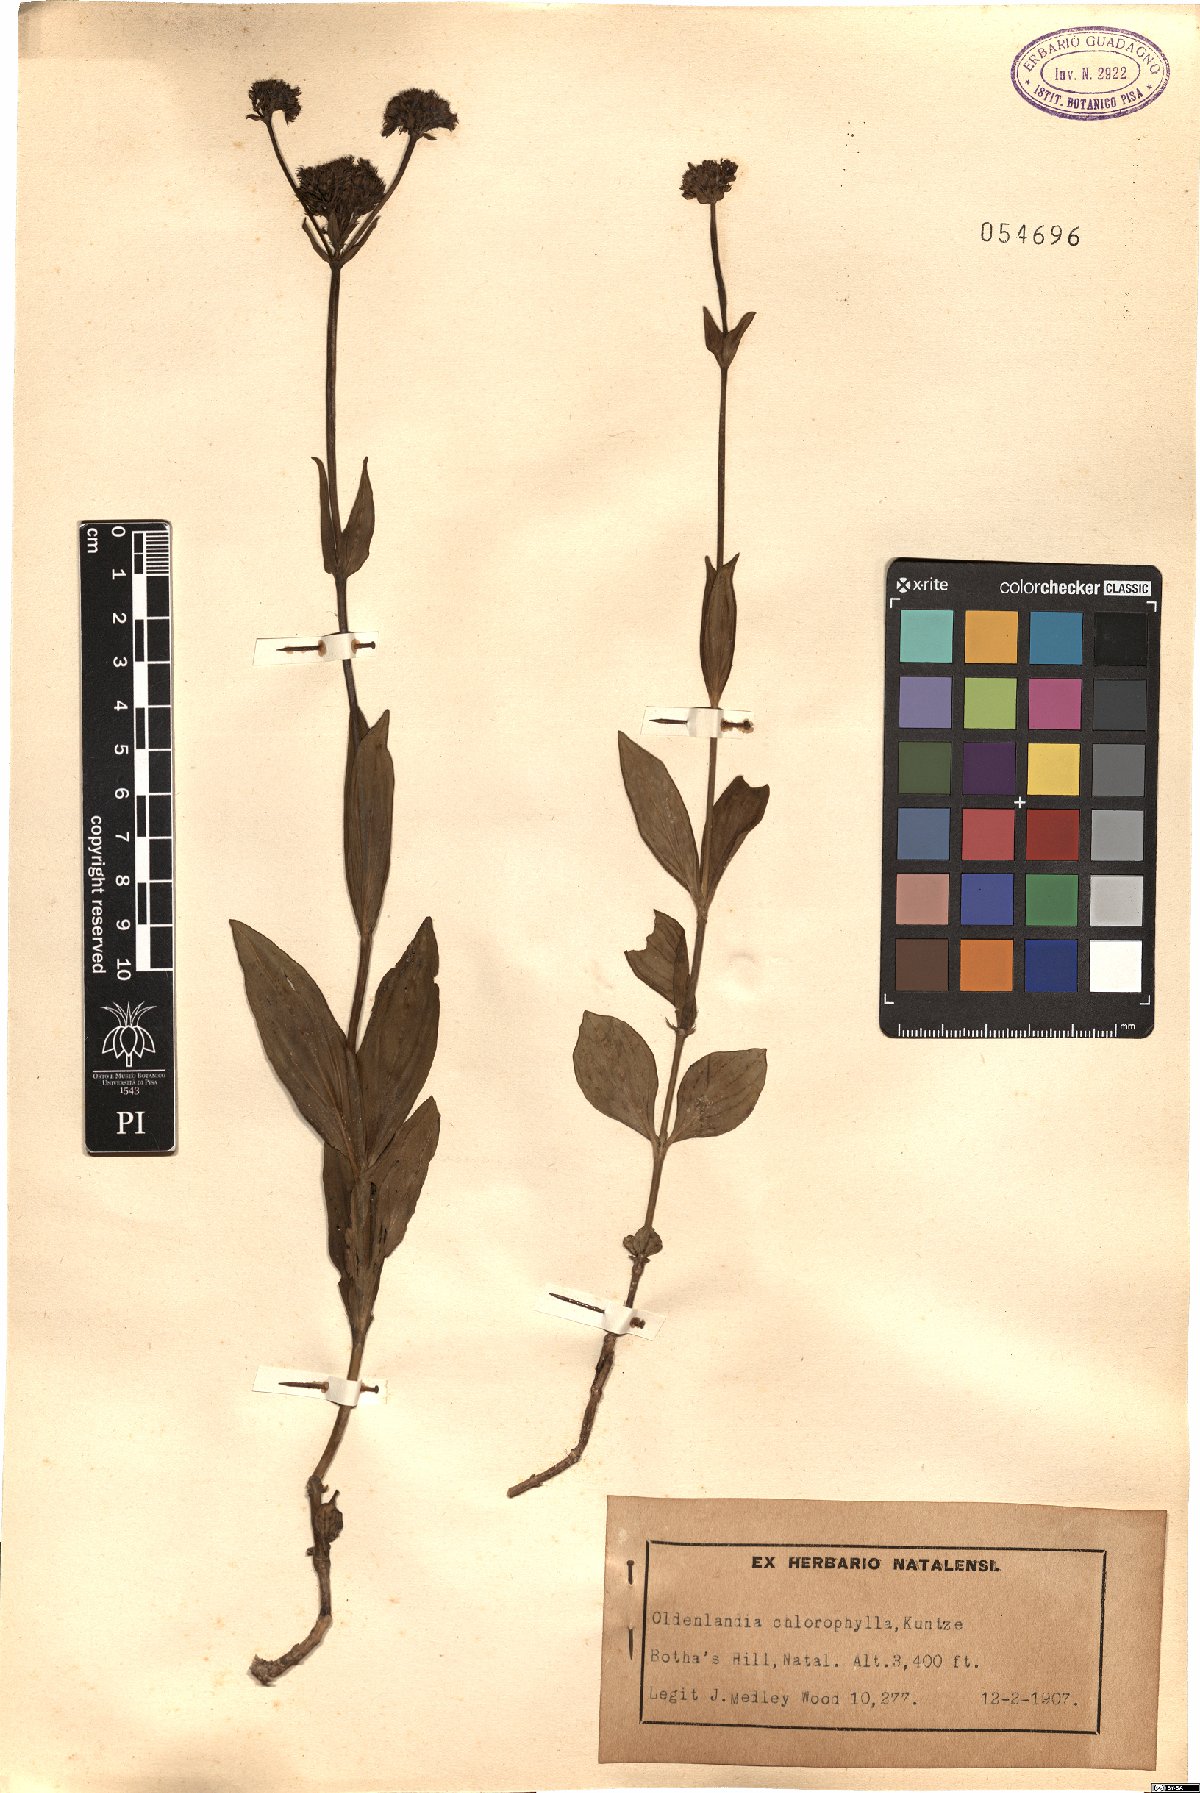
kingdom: Plantae
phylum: Tracheophyta
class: Magnoliopsida
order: Gentianales
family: Rubiaceae
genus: Agathisanthemum
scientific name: Agathisanthemum chlorophyllum
